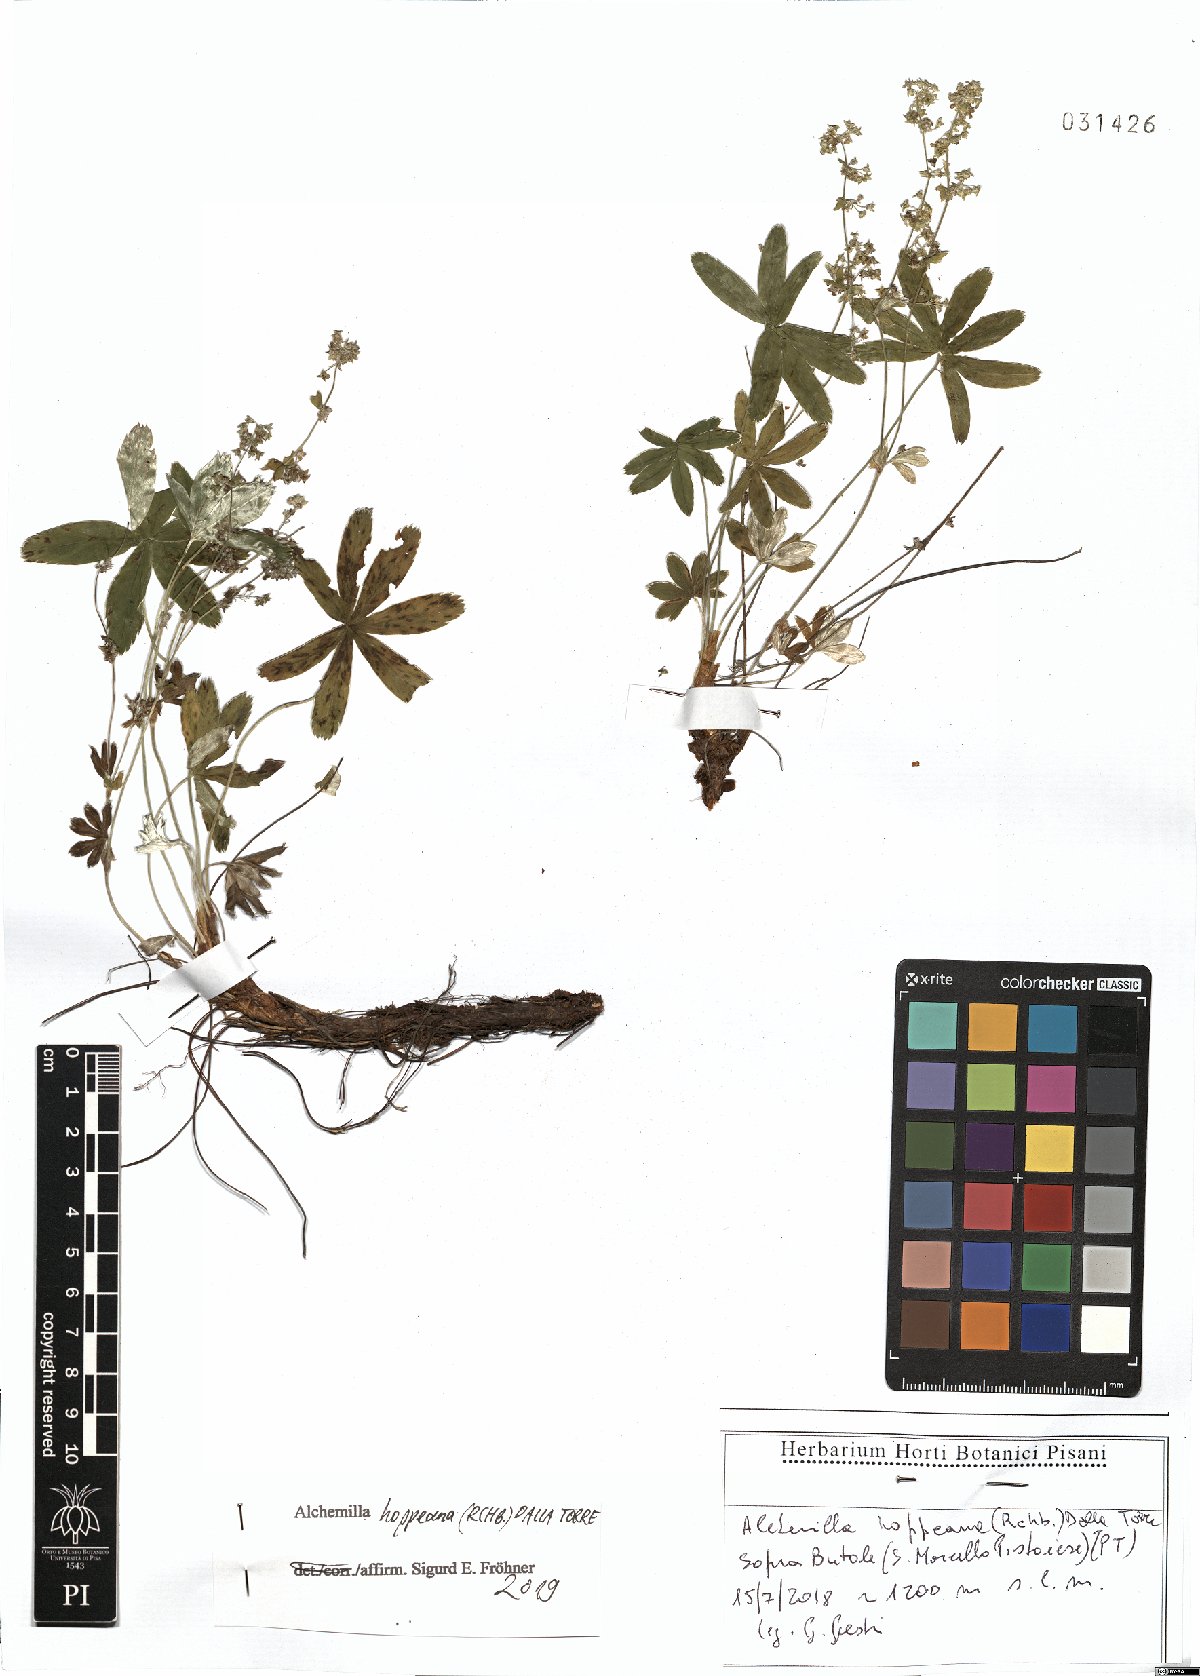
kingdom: Plantae
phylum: Tracheophyta
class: Magnoliopsida
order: Rosales
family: Rosaceae
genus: Alchemilla
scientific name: Alchemilla hoppeana
